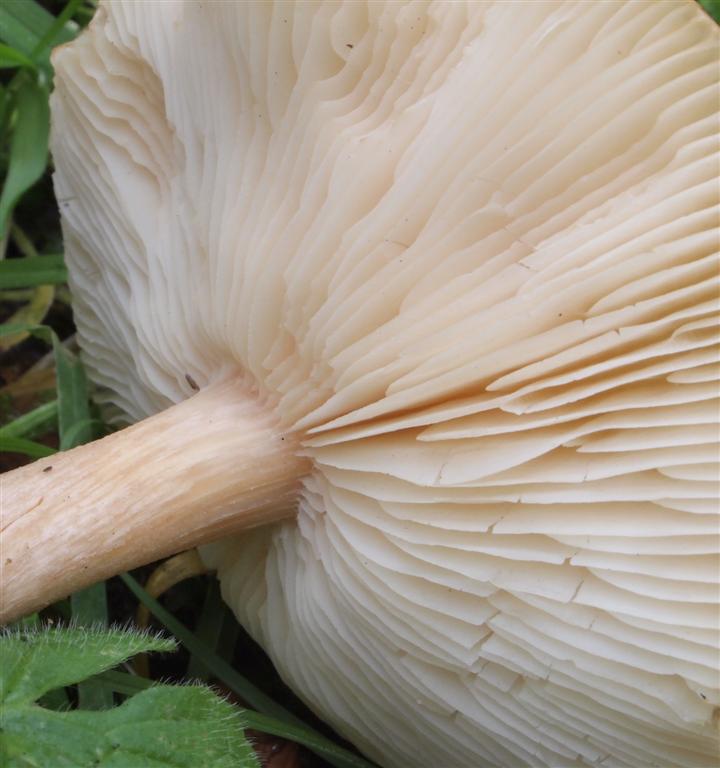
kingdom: Fungi
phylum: Basidiomycota
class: Agaricomycetes
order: Agaricales
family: Tricholomataceae
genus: Melanoleuca
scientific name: Melanoleuca cognata
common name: gyldengrå munkehat
